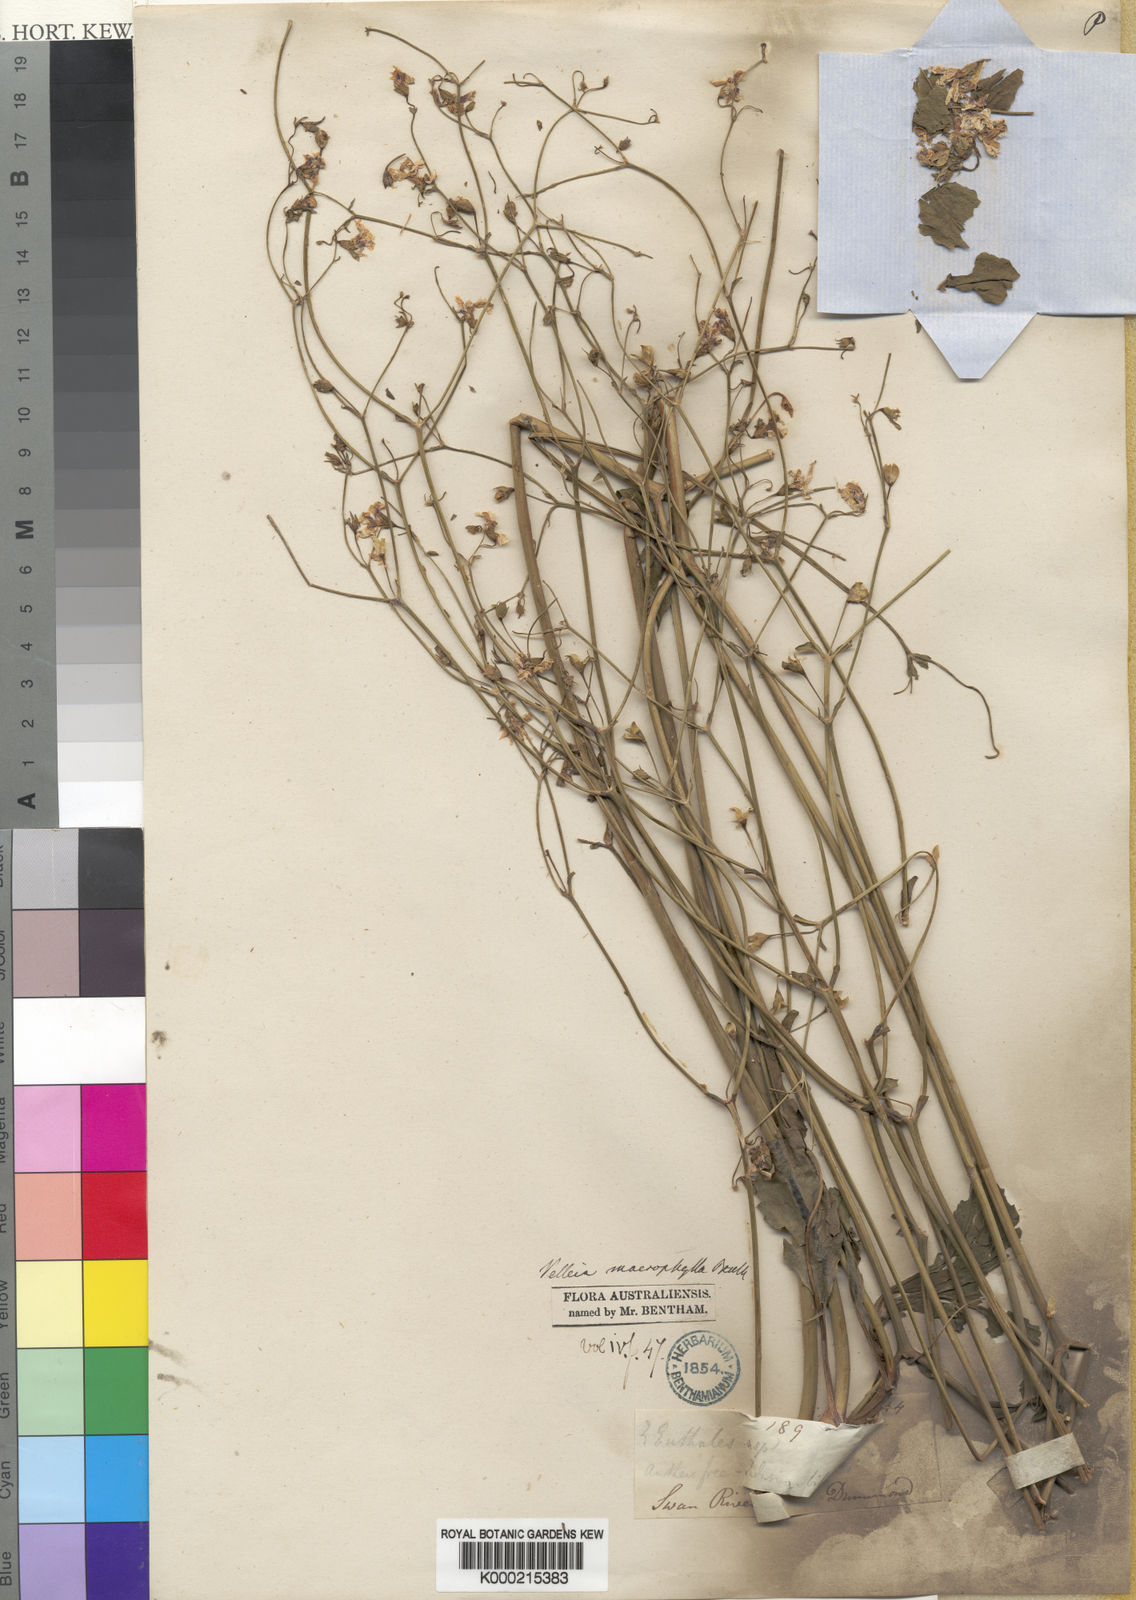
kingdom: Plantae
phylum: Tracheophyta
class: Magnoliopsida
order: Asterales
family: Goodeniaceae
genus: Goodenia
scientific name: Goodenia macrophylla
